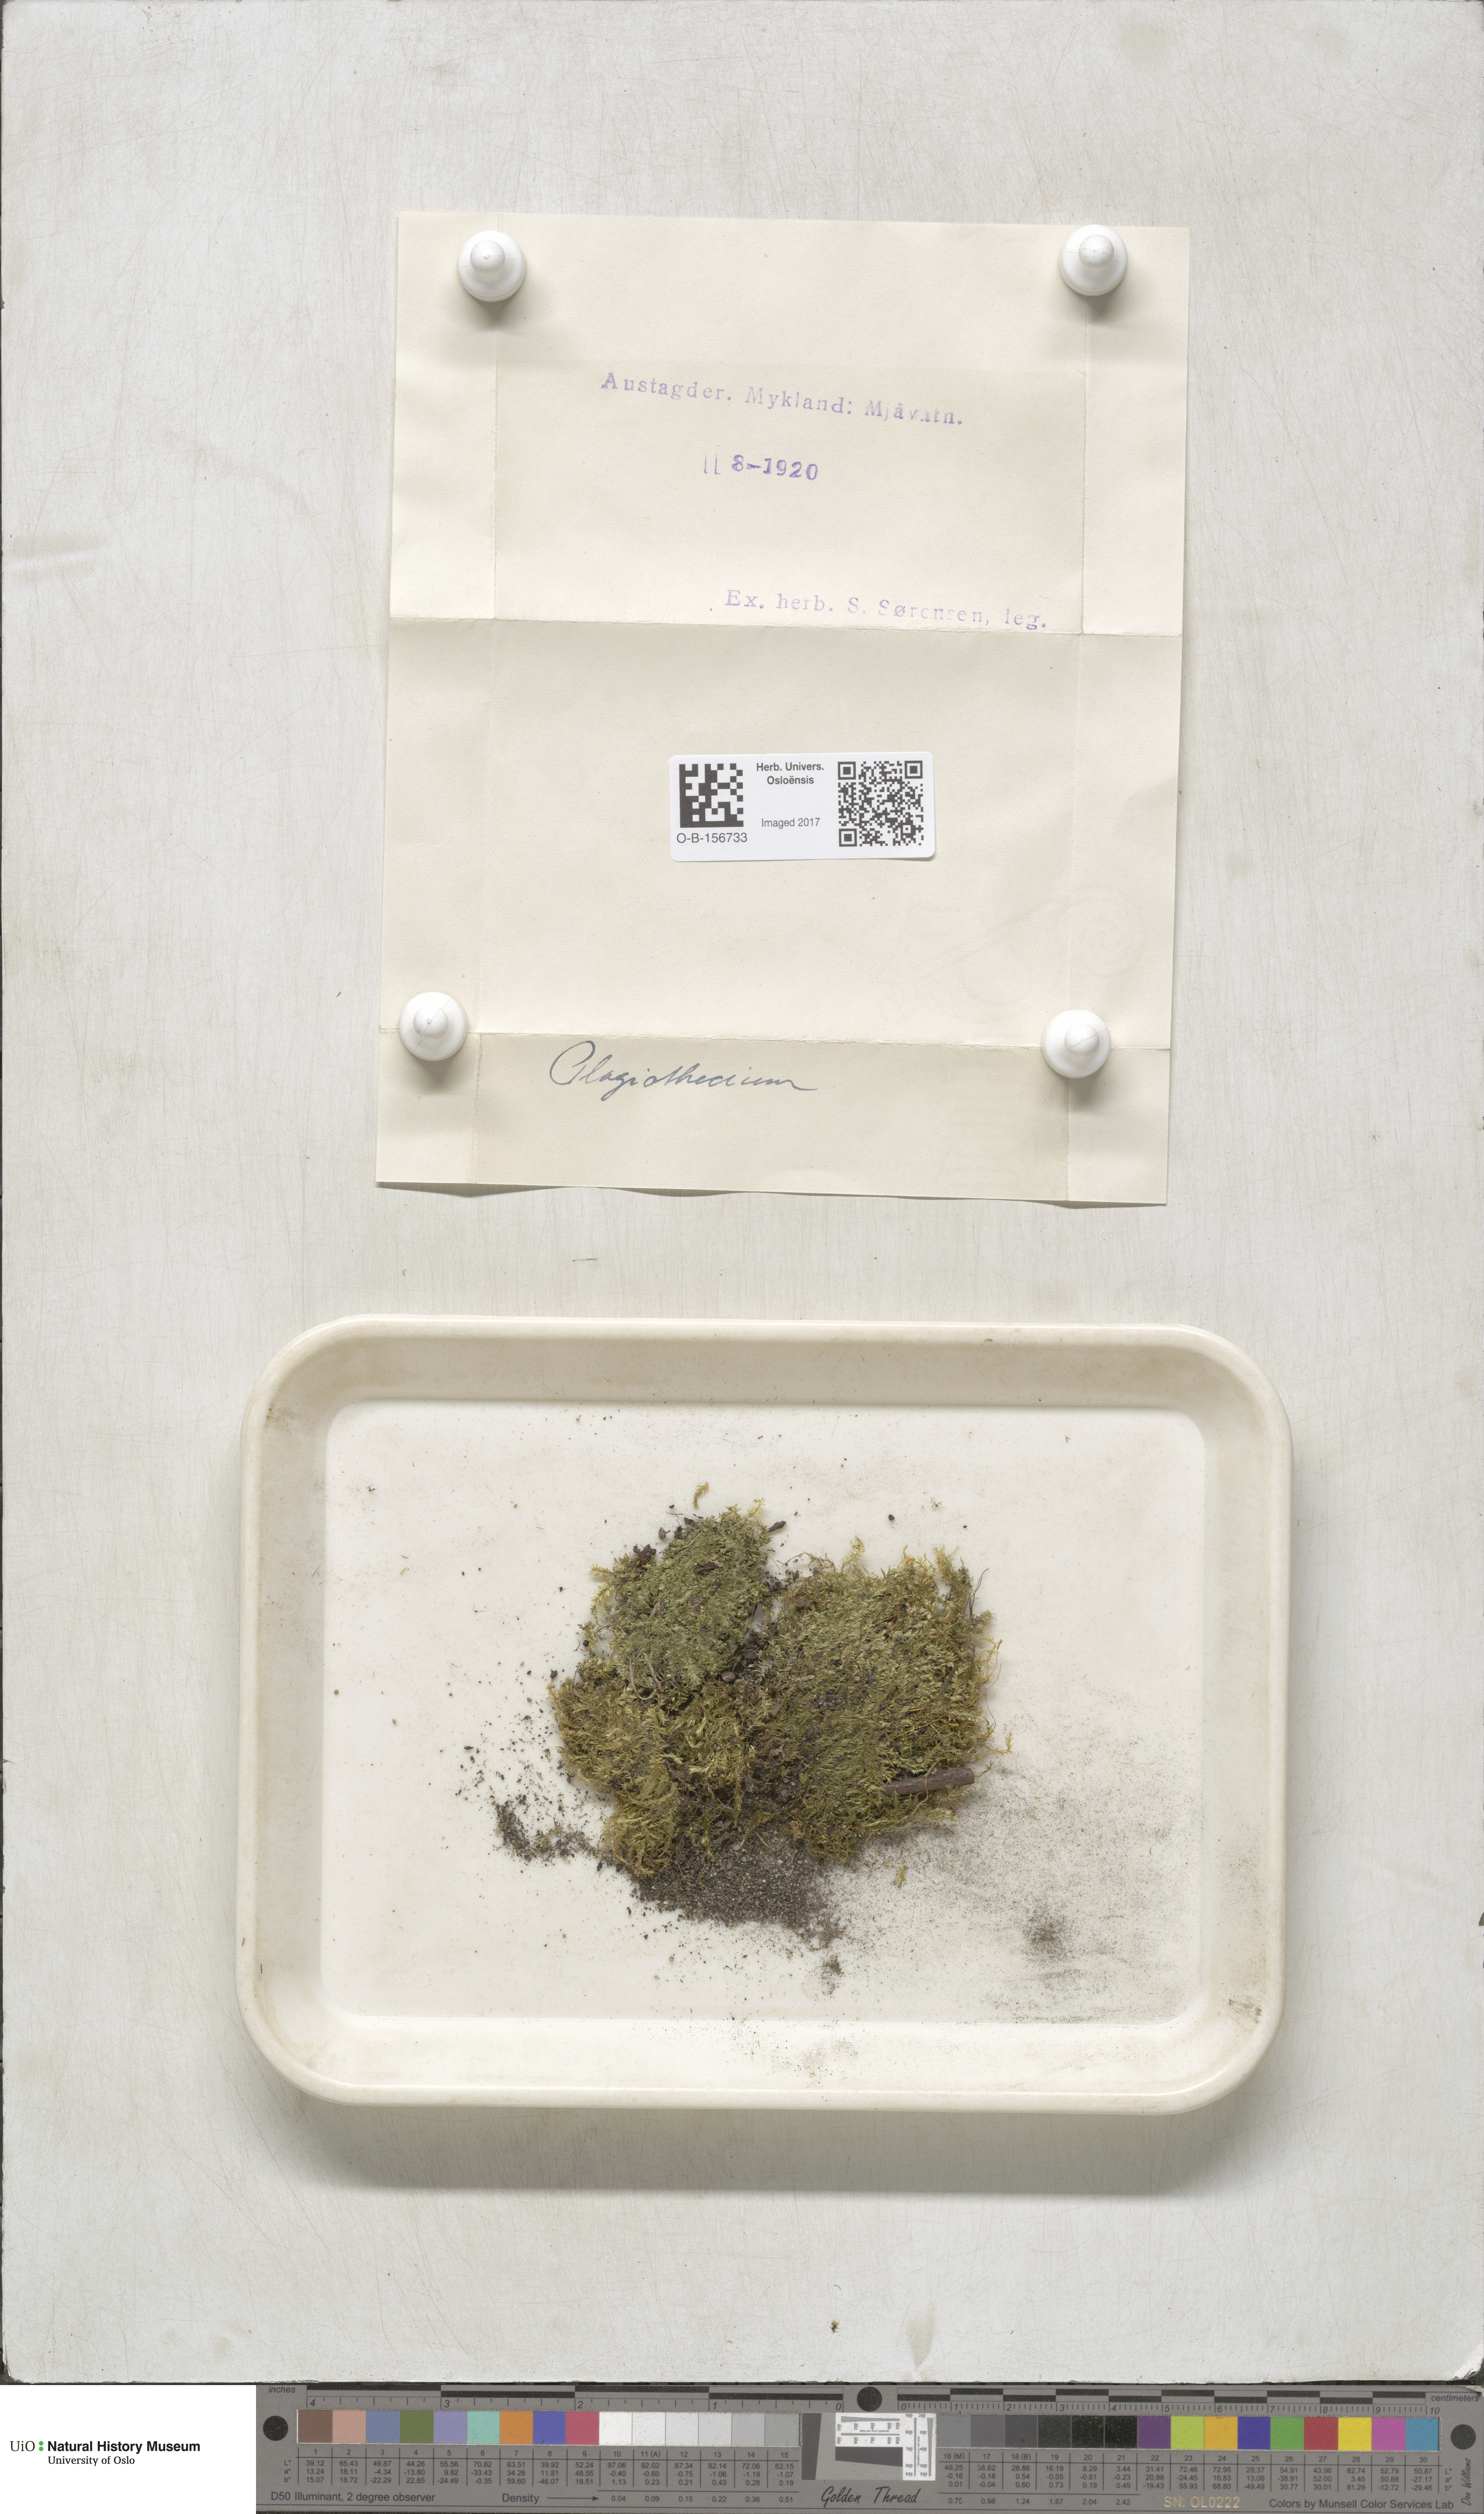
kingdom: Plantae
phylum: Bryophyta
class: Bryopsida
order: Hypnales
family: Plagiotheciaceae
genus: Plagiothecium
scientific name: Plagiothecium
